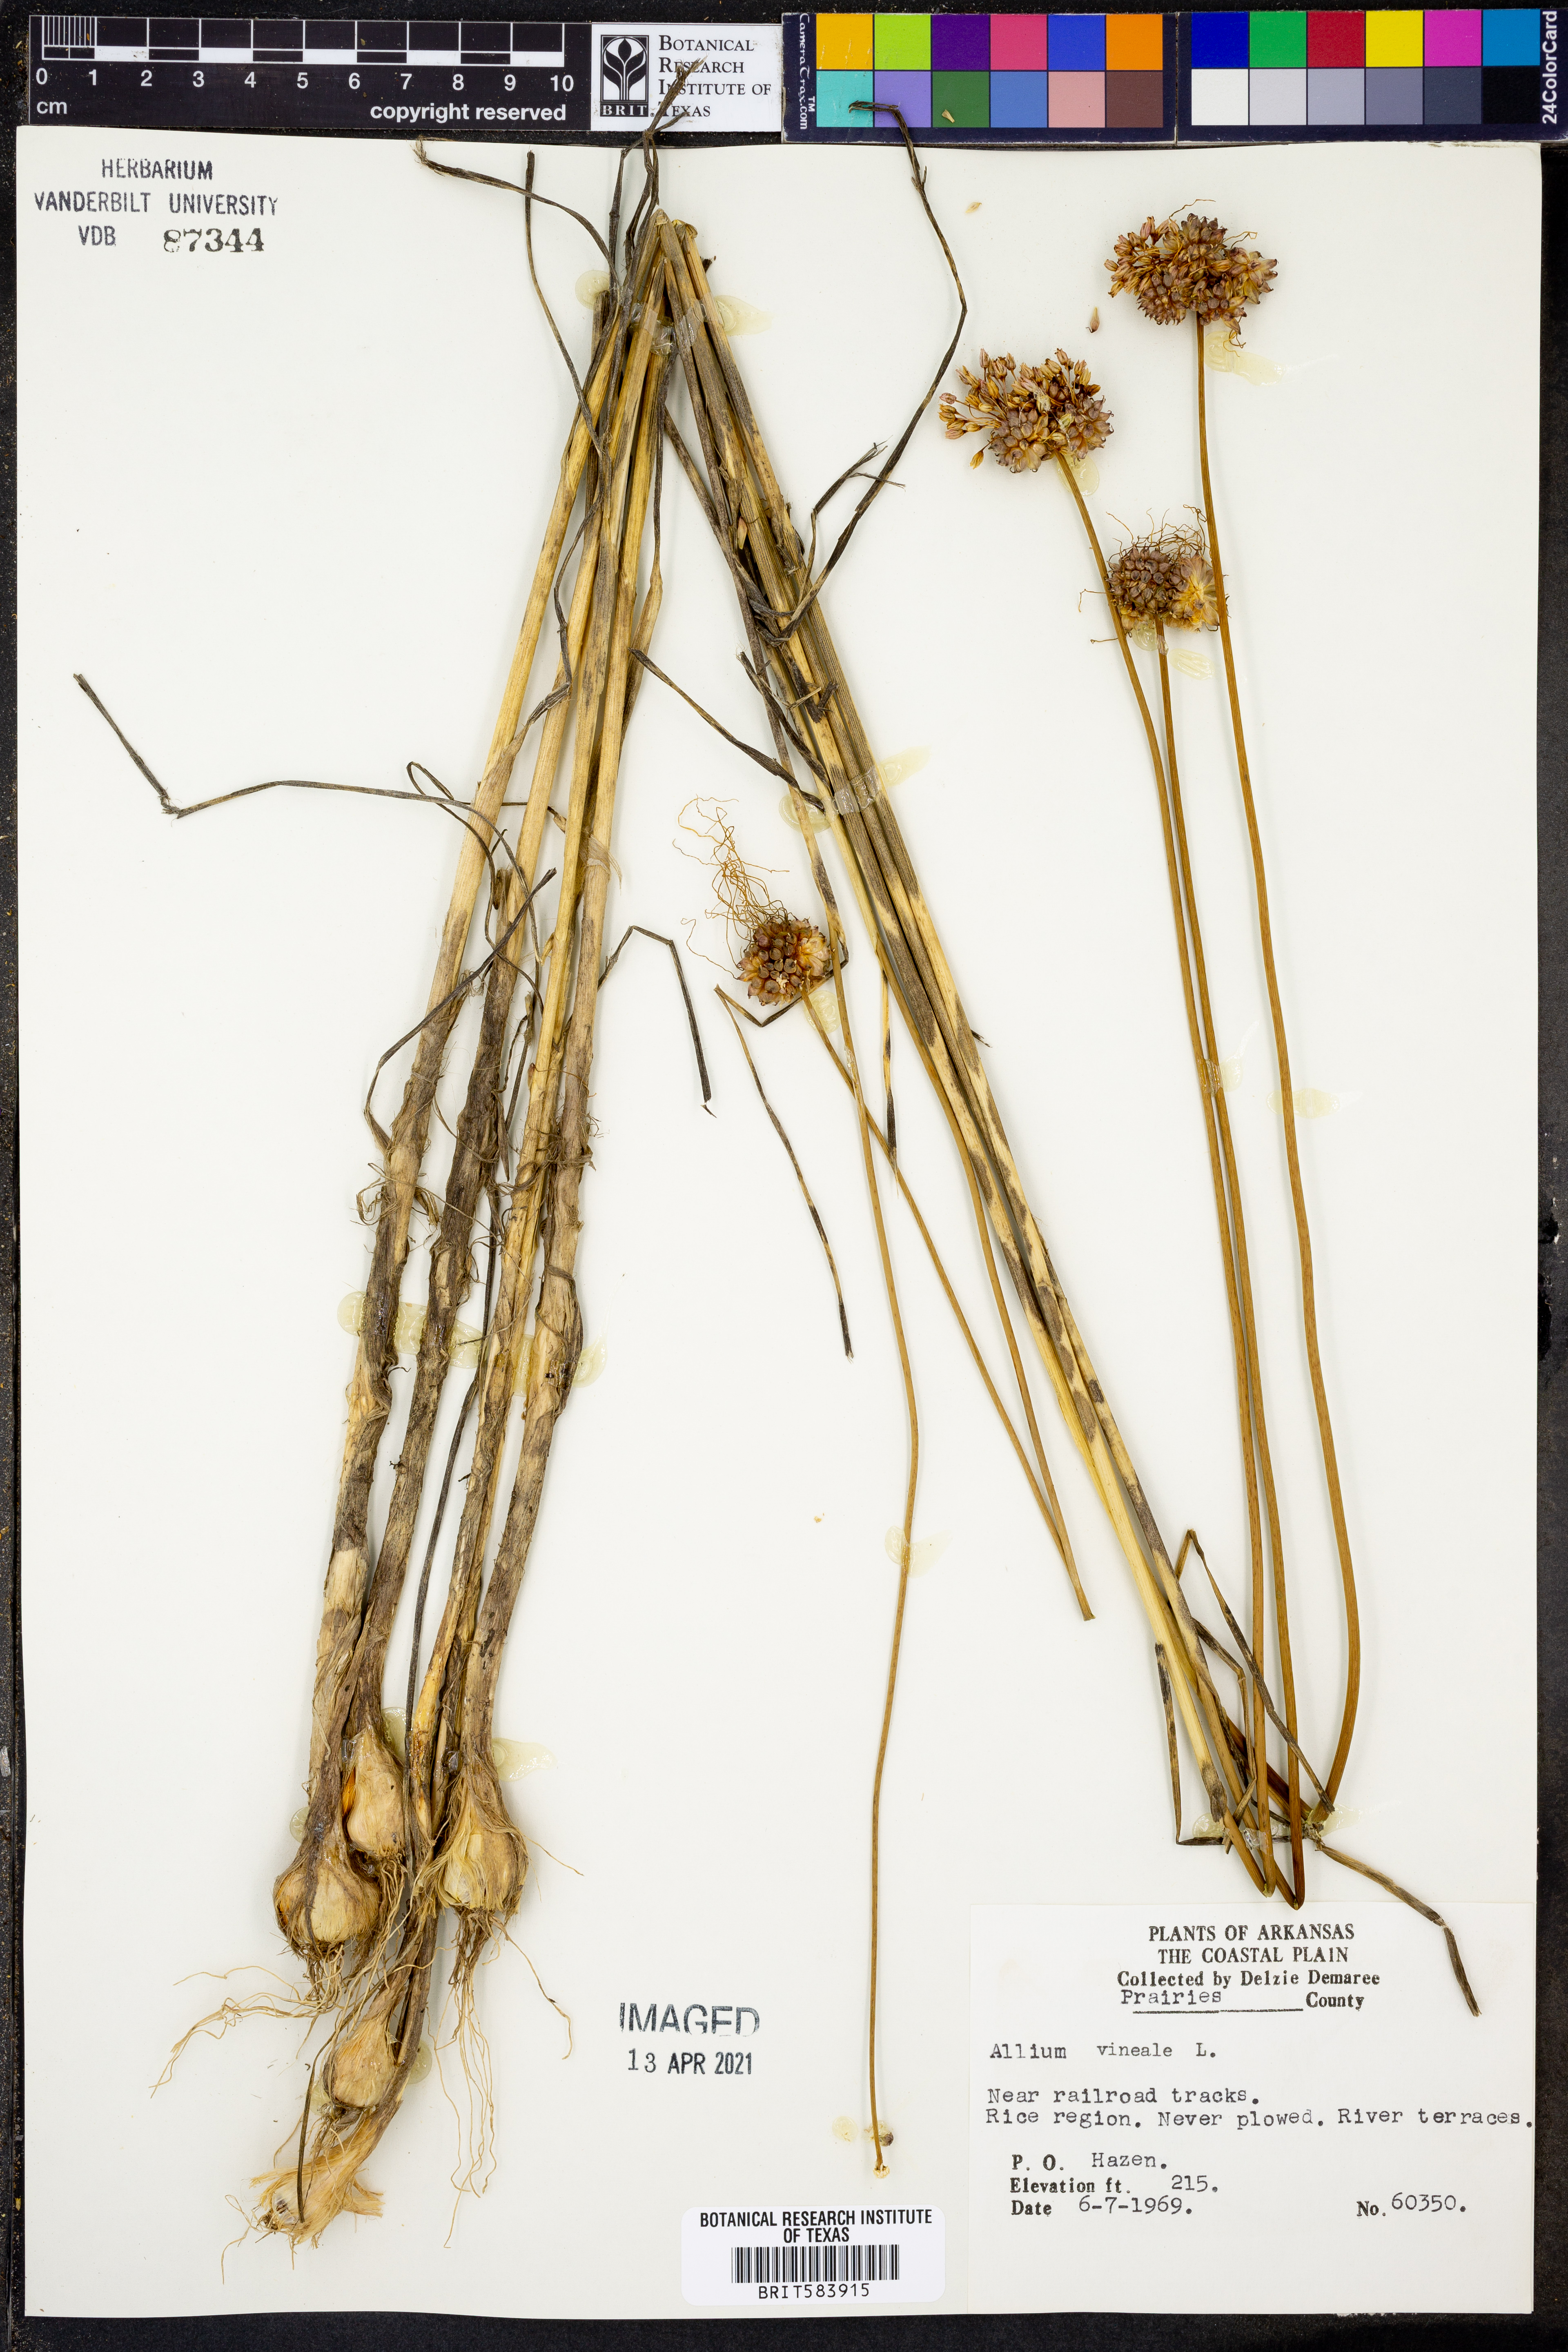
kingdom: Plantae
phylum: Tracheophyta
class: Liliopsida
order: Asparagales
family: Amaryllidaceae
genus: Allium
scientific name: Allium vineale
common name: Crow garlic
